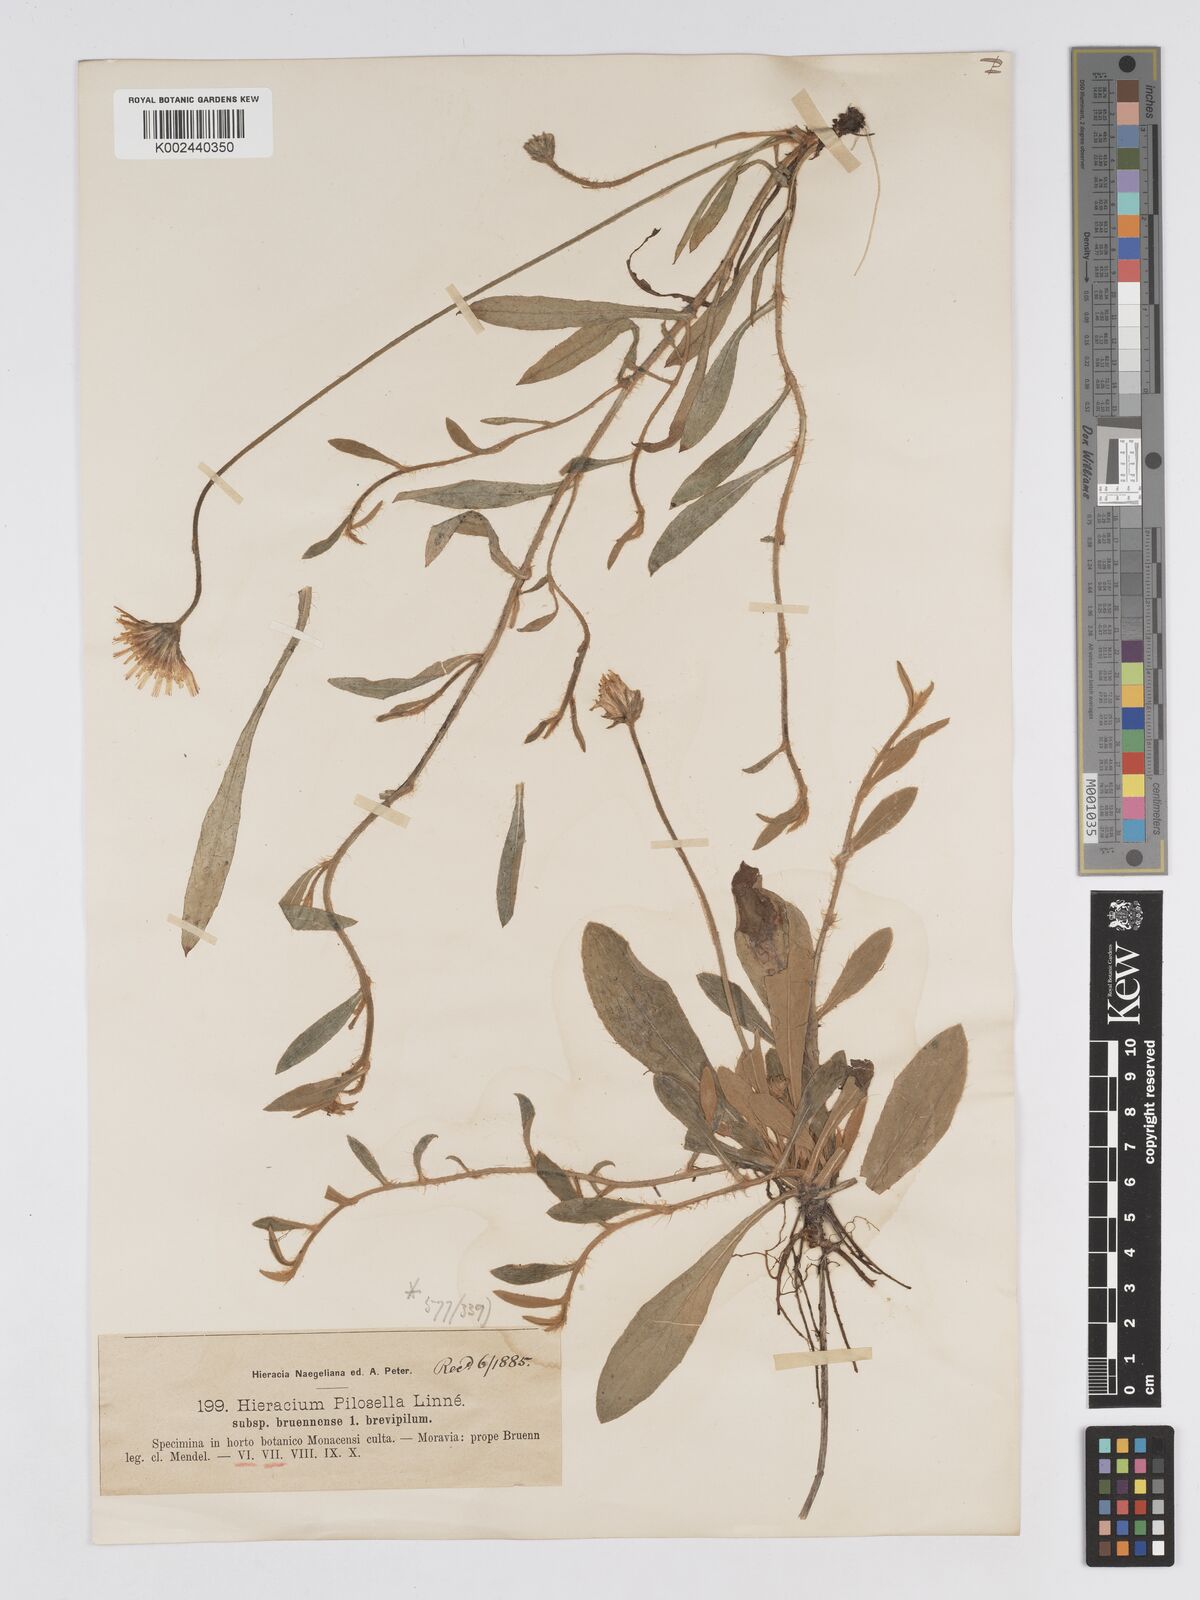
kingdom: Plantae
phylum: Tracheophyta
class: Magnoliopsida
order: Asterales
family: Asteraceae
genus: Pilosella
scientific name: Pilosella officinarum
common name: Mouse-ear hawkweed
